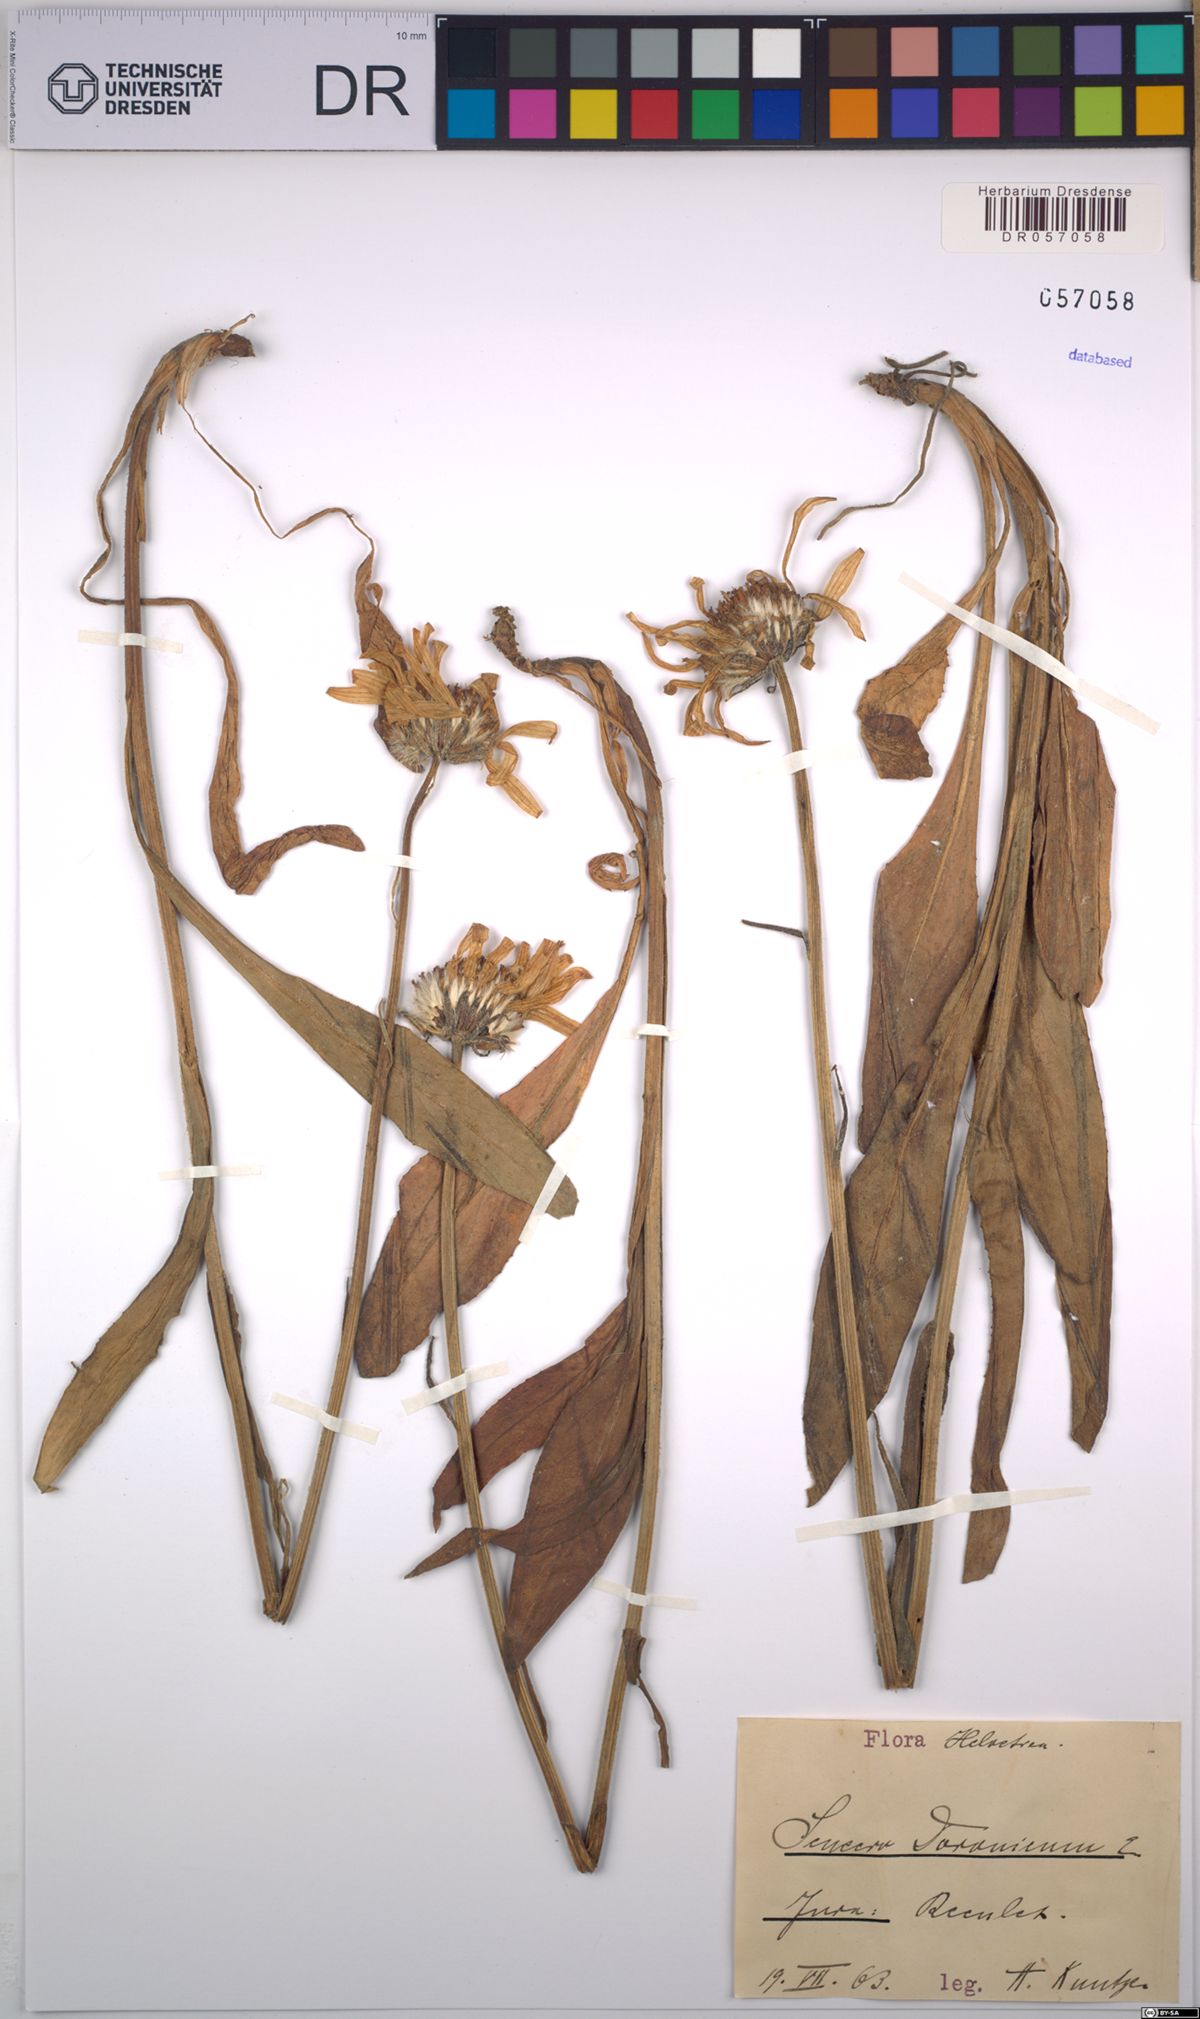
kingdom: Plantae
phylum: Tracheophyta
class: Magnoliopsida
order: Asterales
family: Asteraceae
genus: Senecio
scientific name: Senecio doronicum
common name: Chamois ragwort
